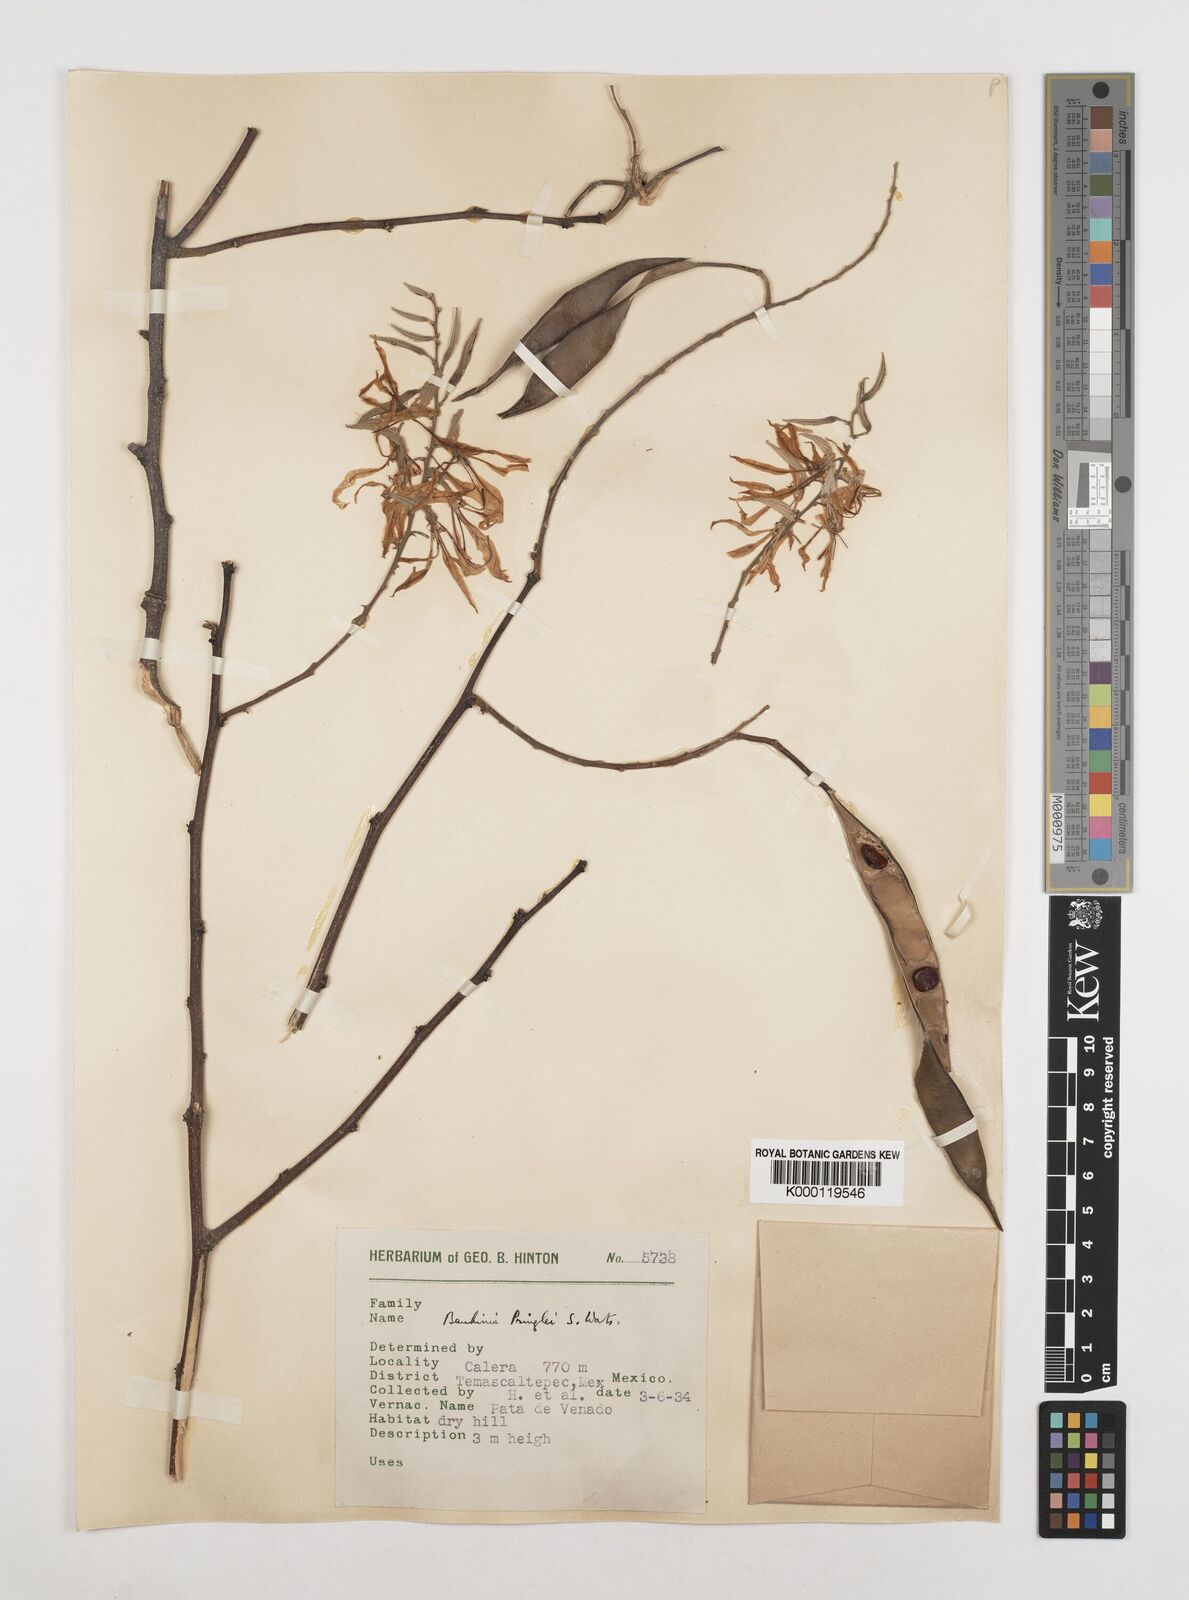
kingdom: Plantae
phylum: Tracheophyta
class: Magnoliopsida
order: Fabales
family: Fabaceae
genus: Bauhinia
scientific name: Bauhinia pringlei
